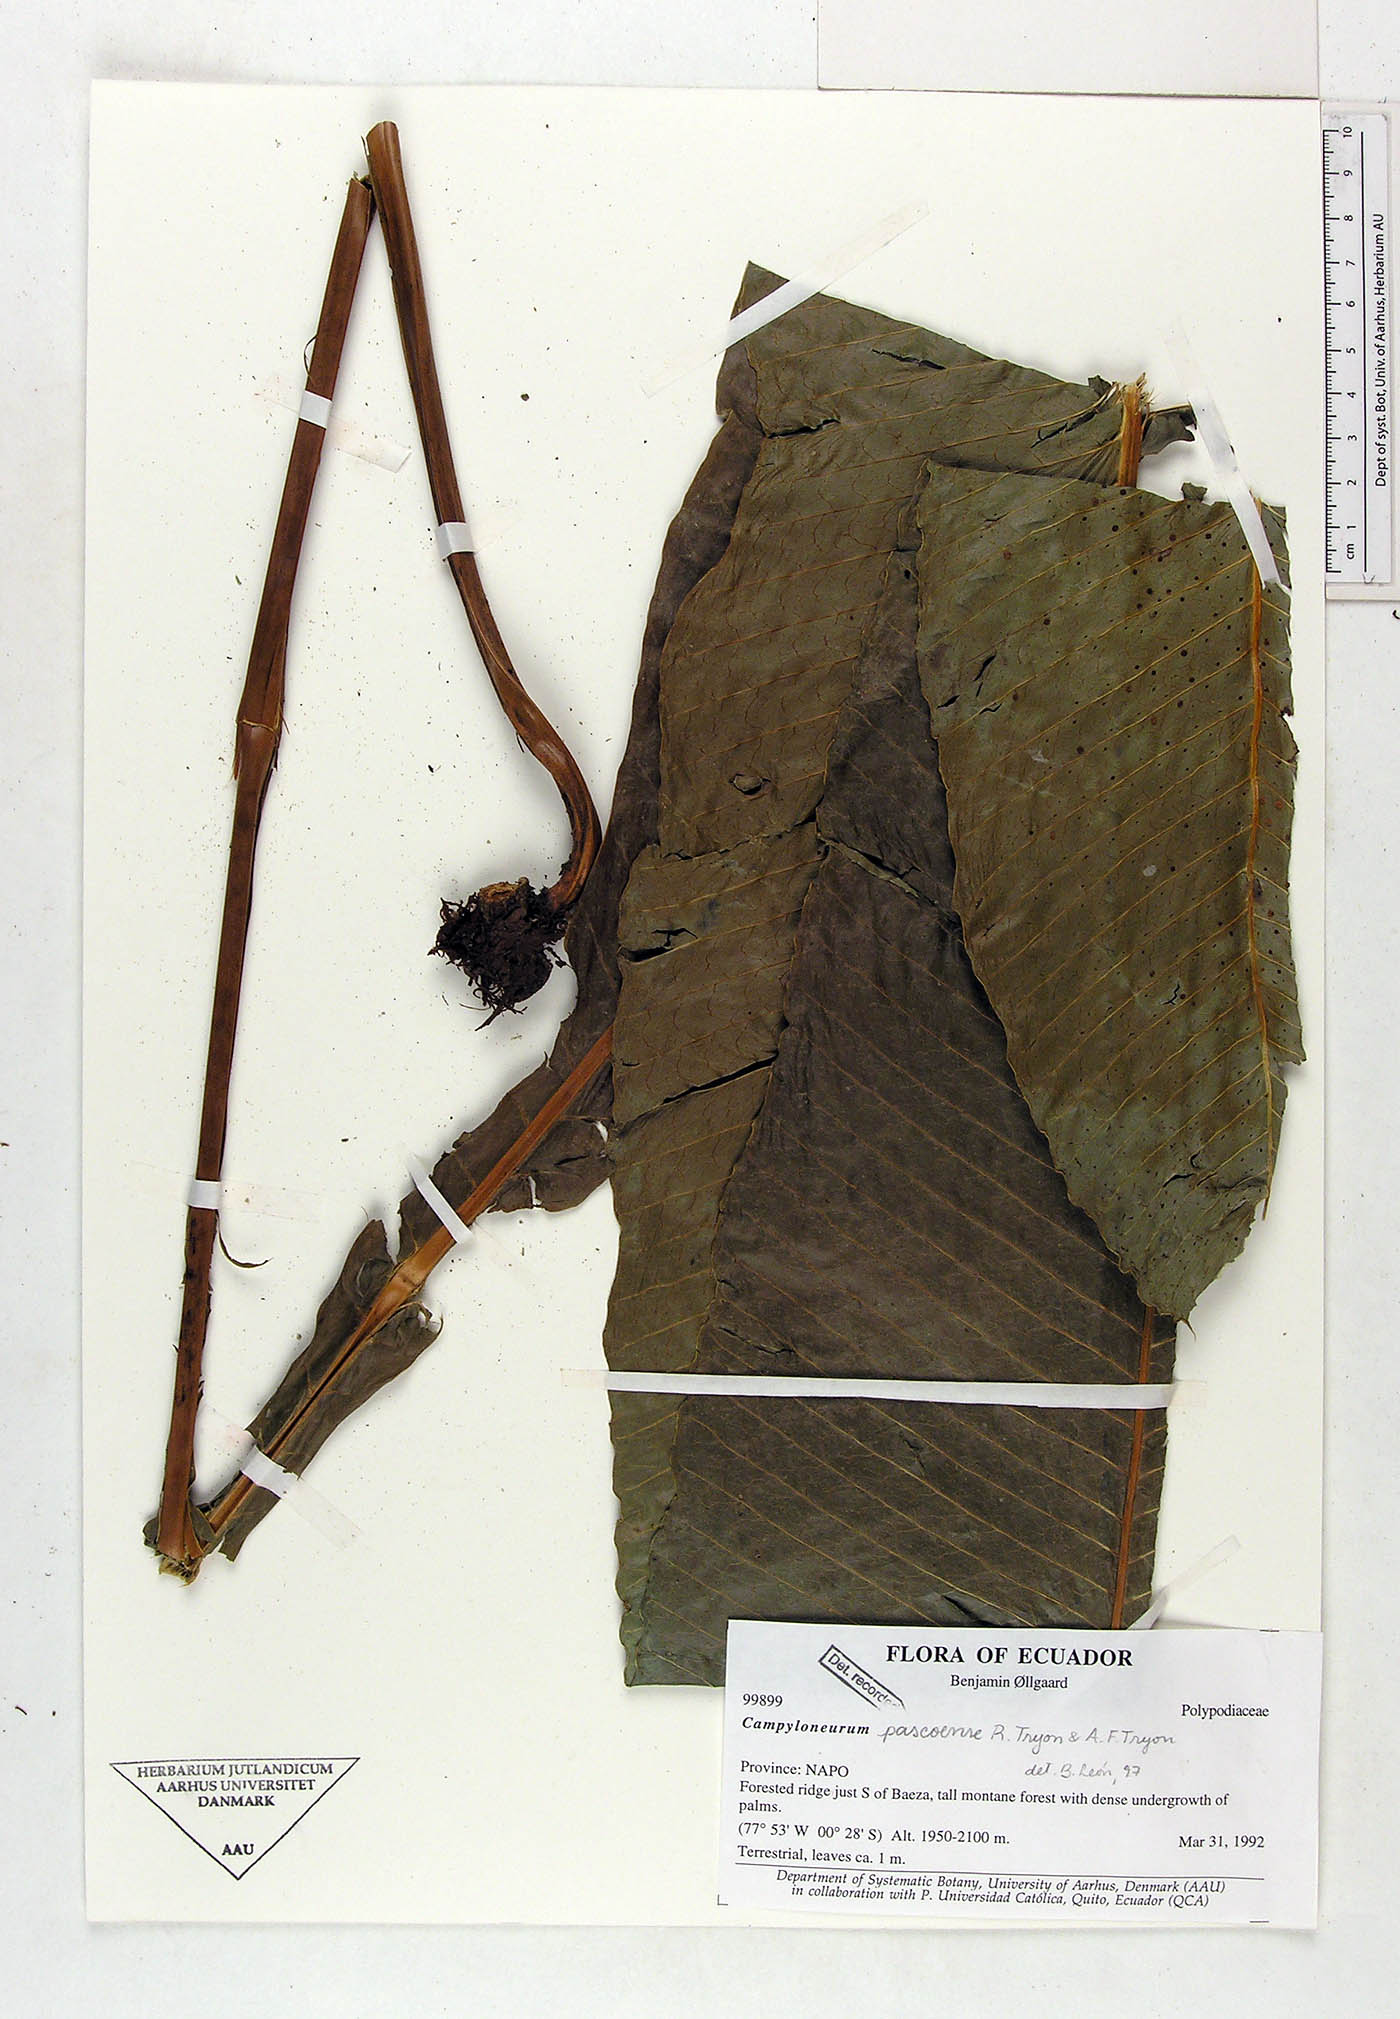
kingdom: Plantae
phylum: Tracheophyta
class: Polypodiopsida
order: Polypodiales
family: Polypodiaceae
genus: Campyloneurum
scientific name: Campyloneurum pascoense
